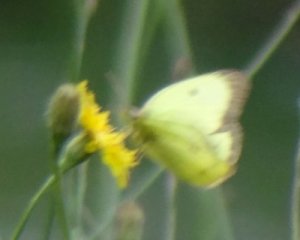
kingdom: Animalia
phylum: Arthropoda
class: Insecta
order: Lepidoptera
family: Pieridae
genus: Colias
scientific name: Colias philodice
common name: Clouded Sulphur
